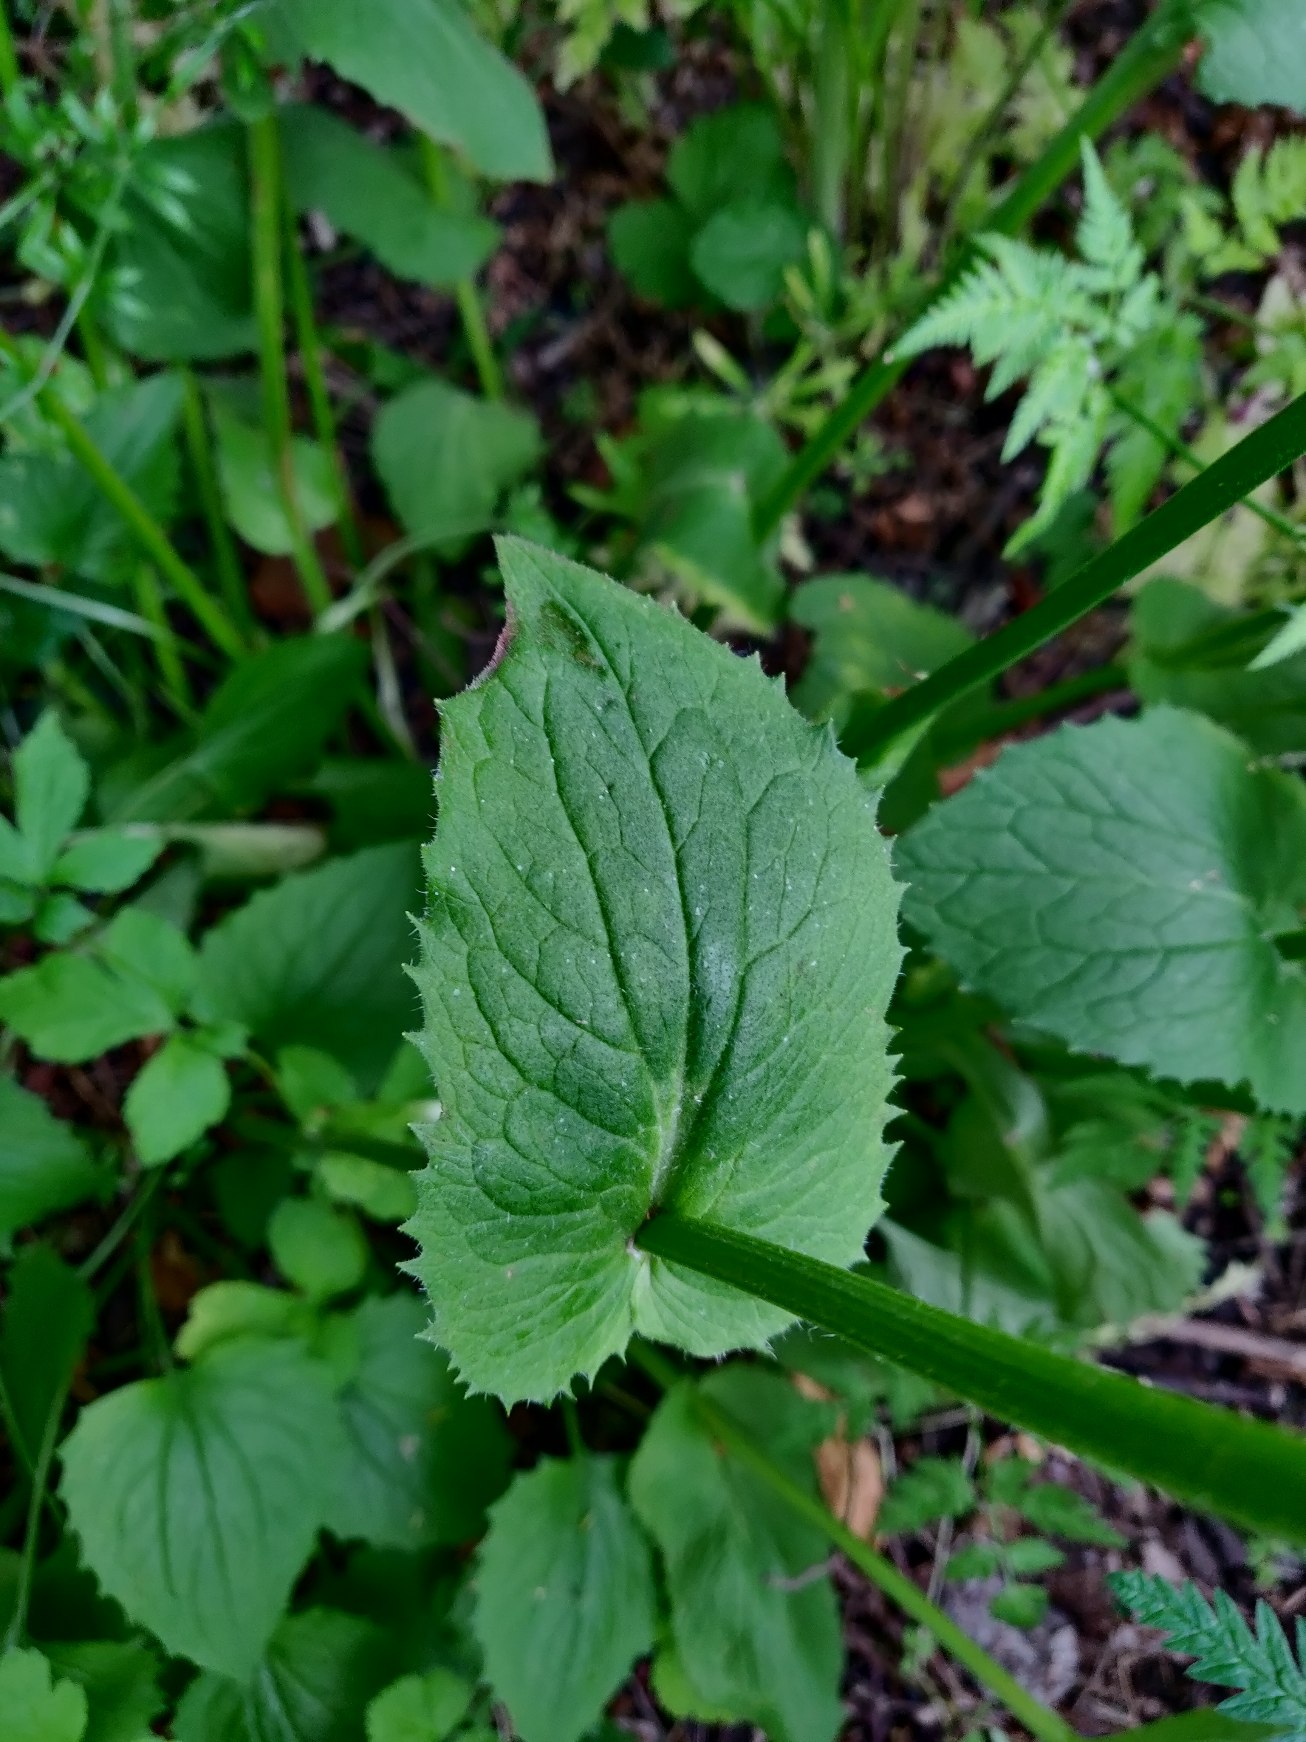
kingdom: Plantae
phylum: Tracheophyta
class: Magnoliopsida
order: Asterales
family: Asteraceae
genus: Doronicum
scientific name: Doronicum orientale
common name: Balkan-gemserod
